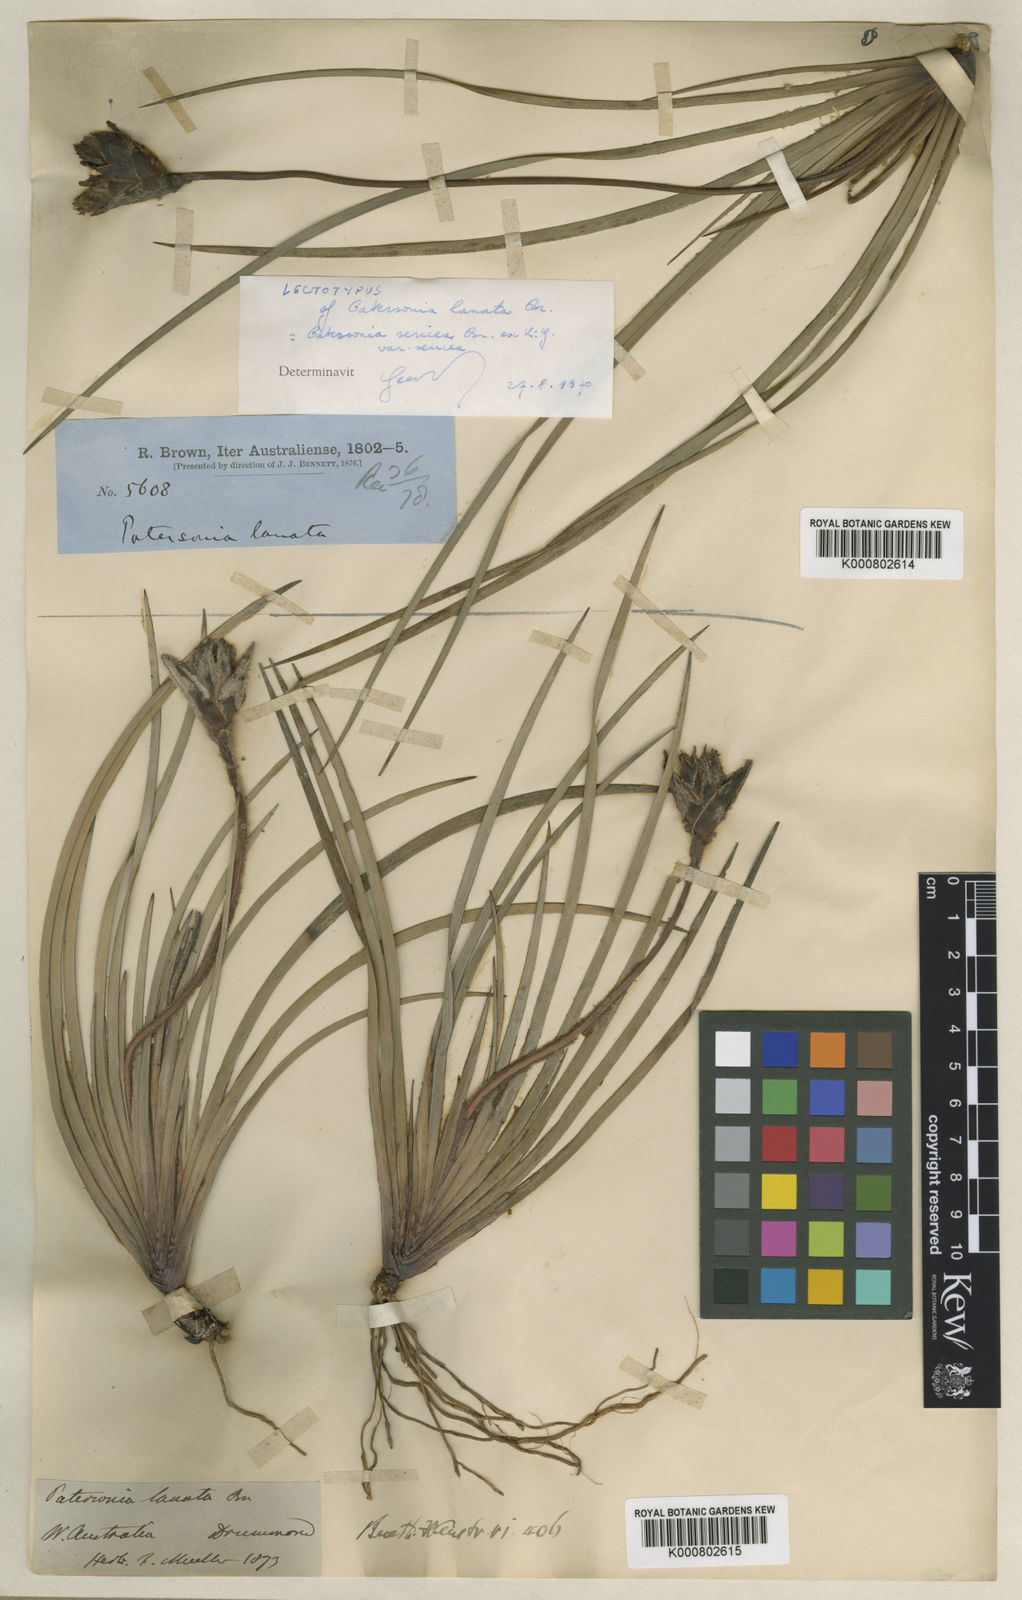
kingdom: Plantae
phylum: Tracheophyta
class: Liliopsida
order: Asparagales
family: Iridaceae
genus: Patersonia
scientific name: Patersonia lanata
